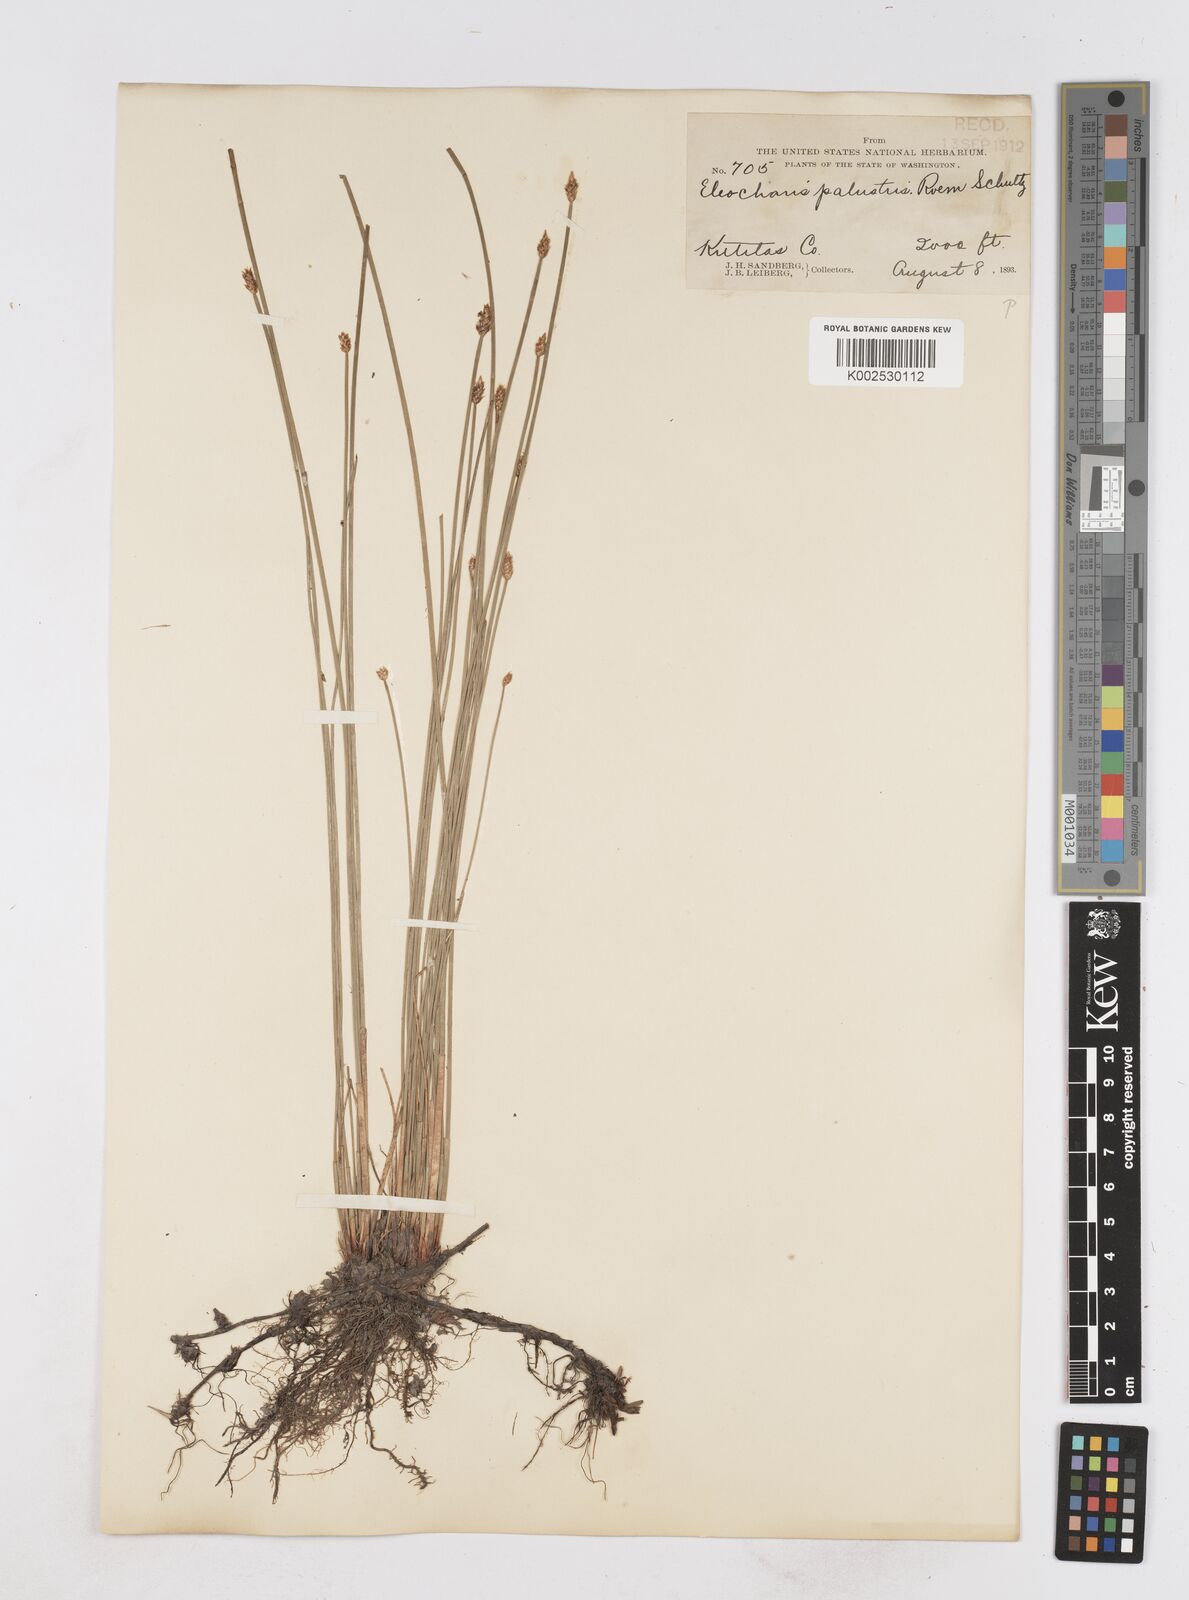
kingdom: Plantae
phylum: Tracheophyta
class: Liliopsida
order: Poales
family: Cyperaceae
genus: Eleocharis
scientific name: Eleocharis palustris
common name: Common spike-rush
